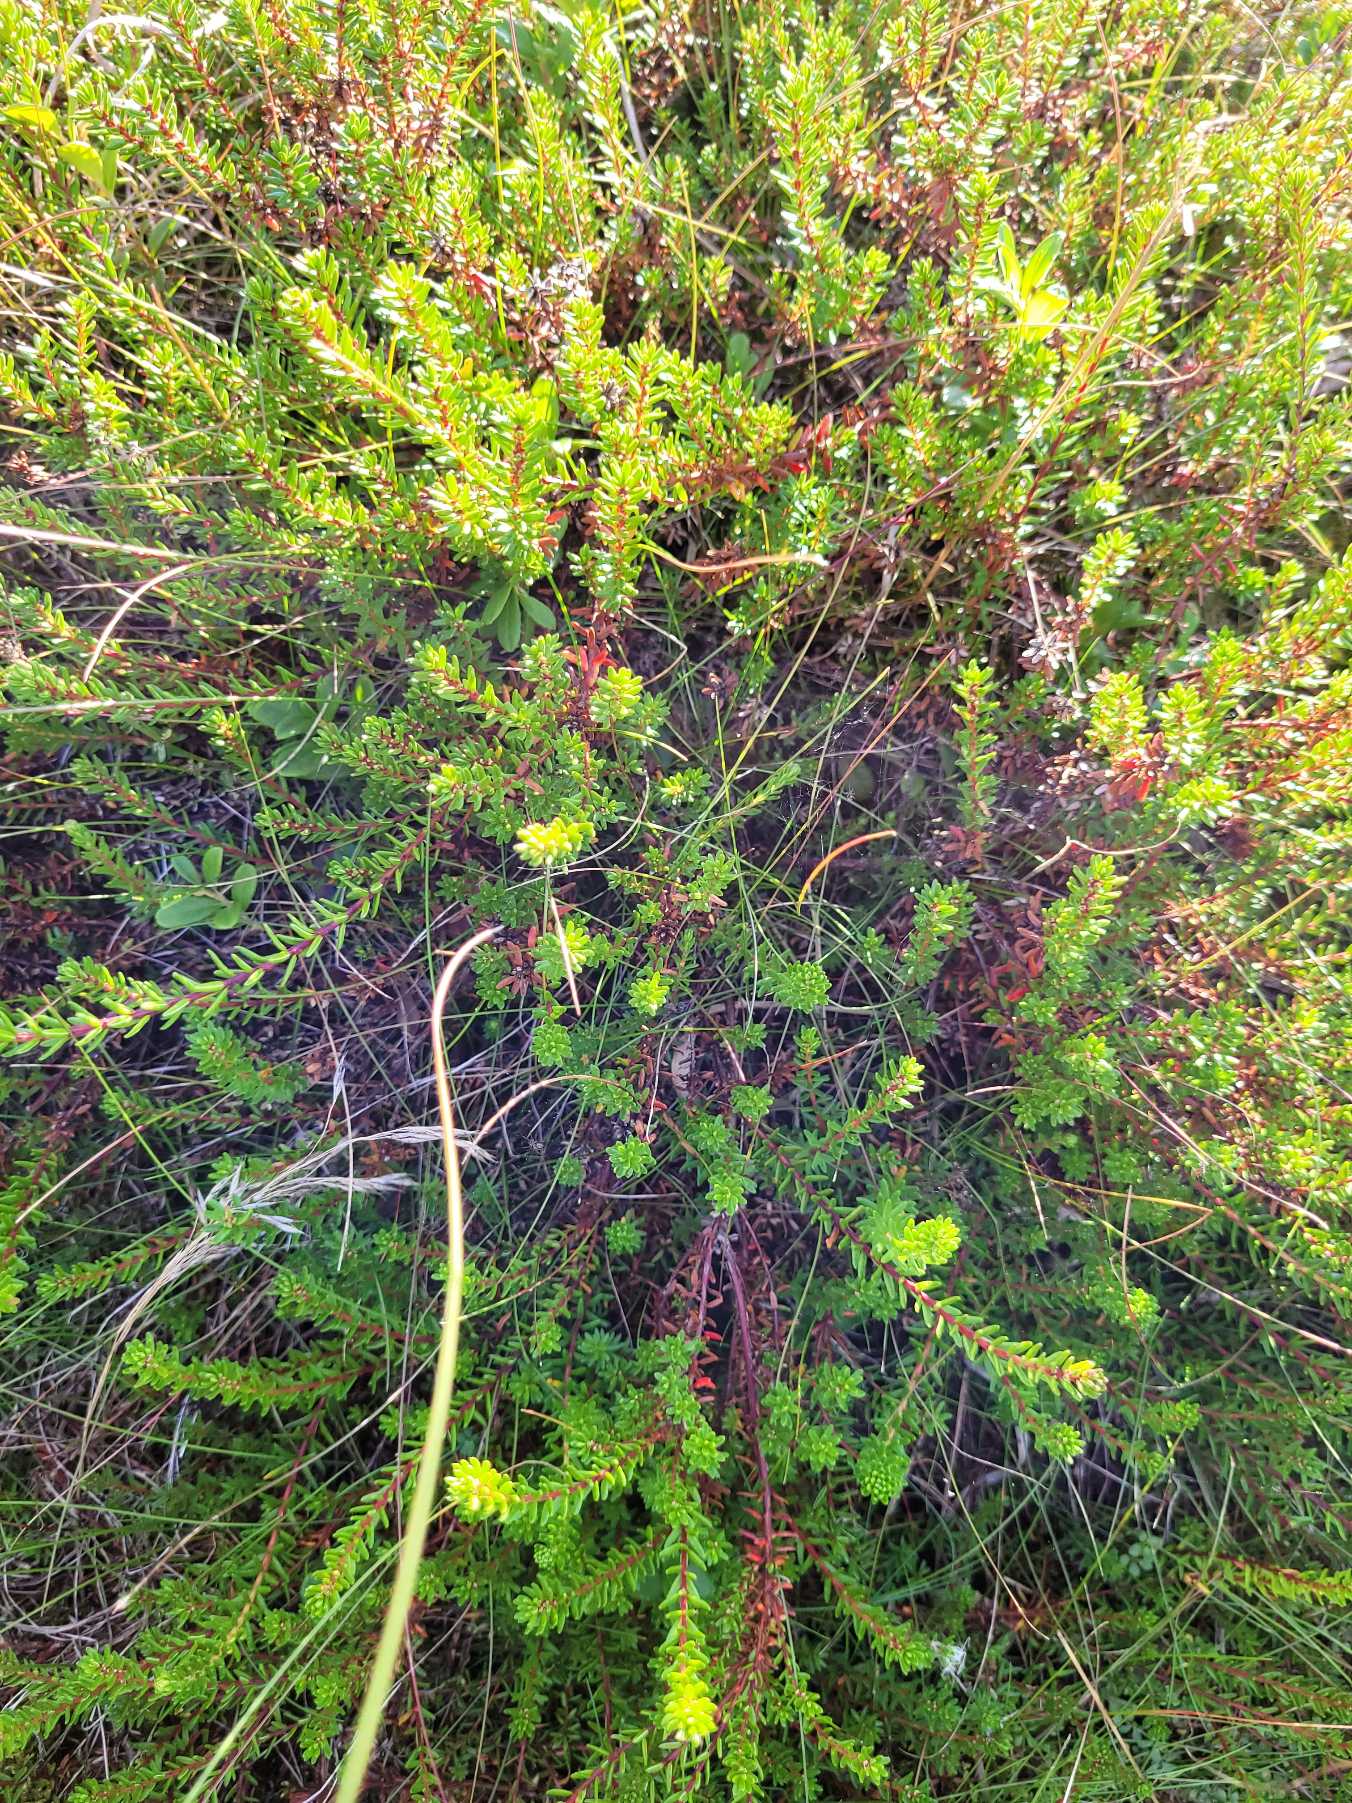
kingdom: Plantae
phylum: Tracheophyta
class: Magnoliopsida
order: Ericales
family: Ericaceae
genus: Empetrum
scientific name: Empetrum nigrum
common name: Revling
